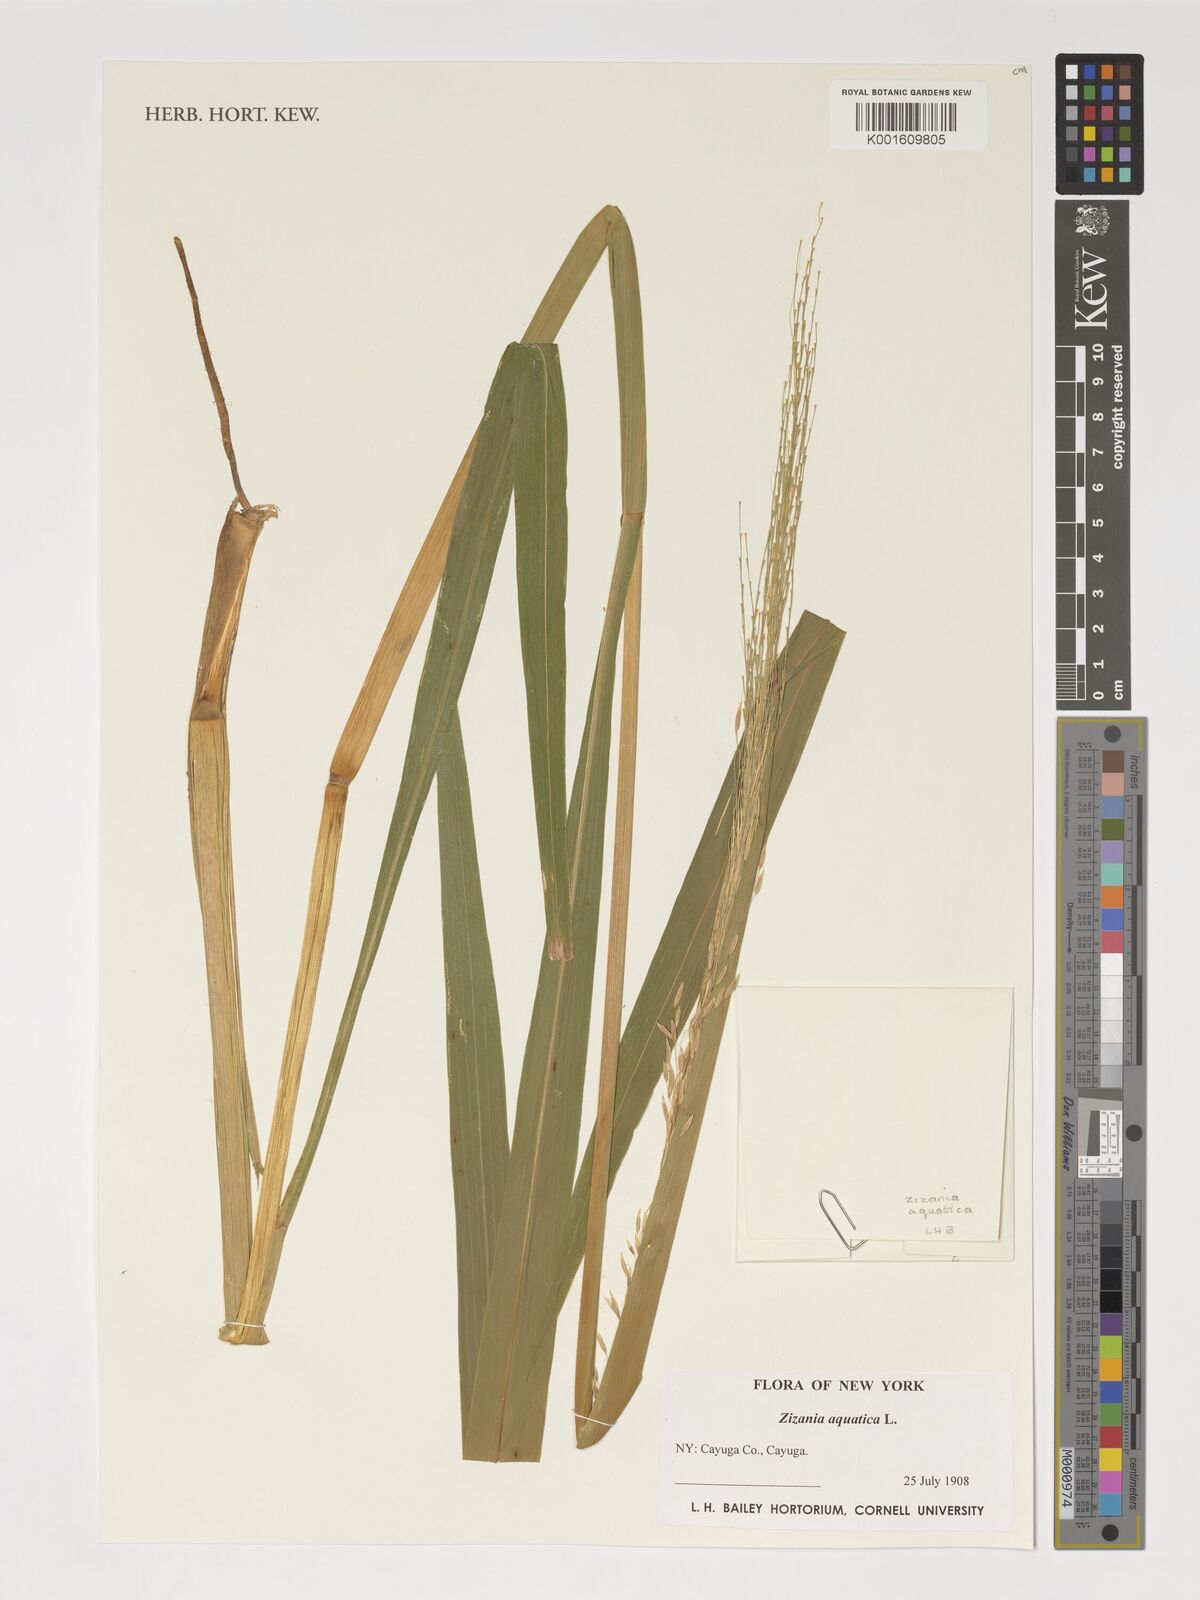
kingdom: Plantae
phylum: Tracheophyta
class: Liliopsida
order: Poales
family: Poaceae
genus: Zizania
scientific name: Zizania aquatica
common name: Annual wildrice
